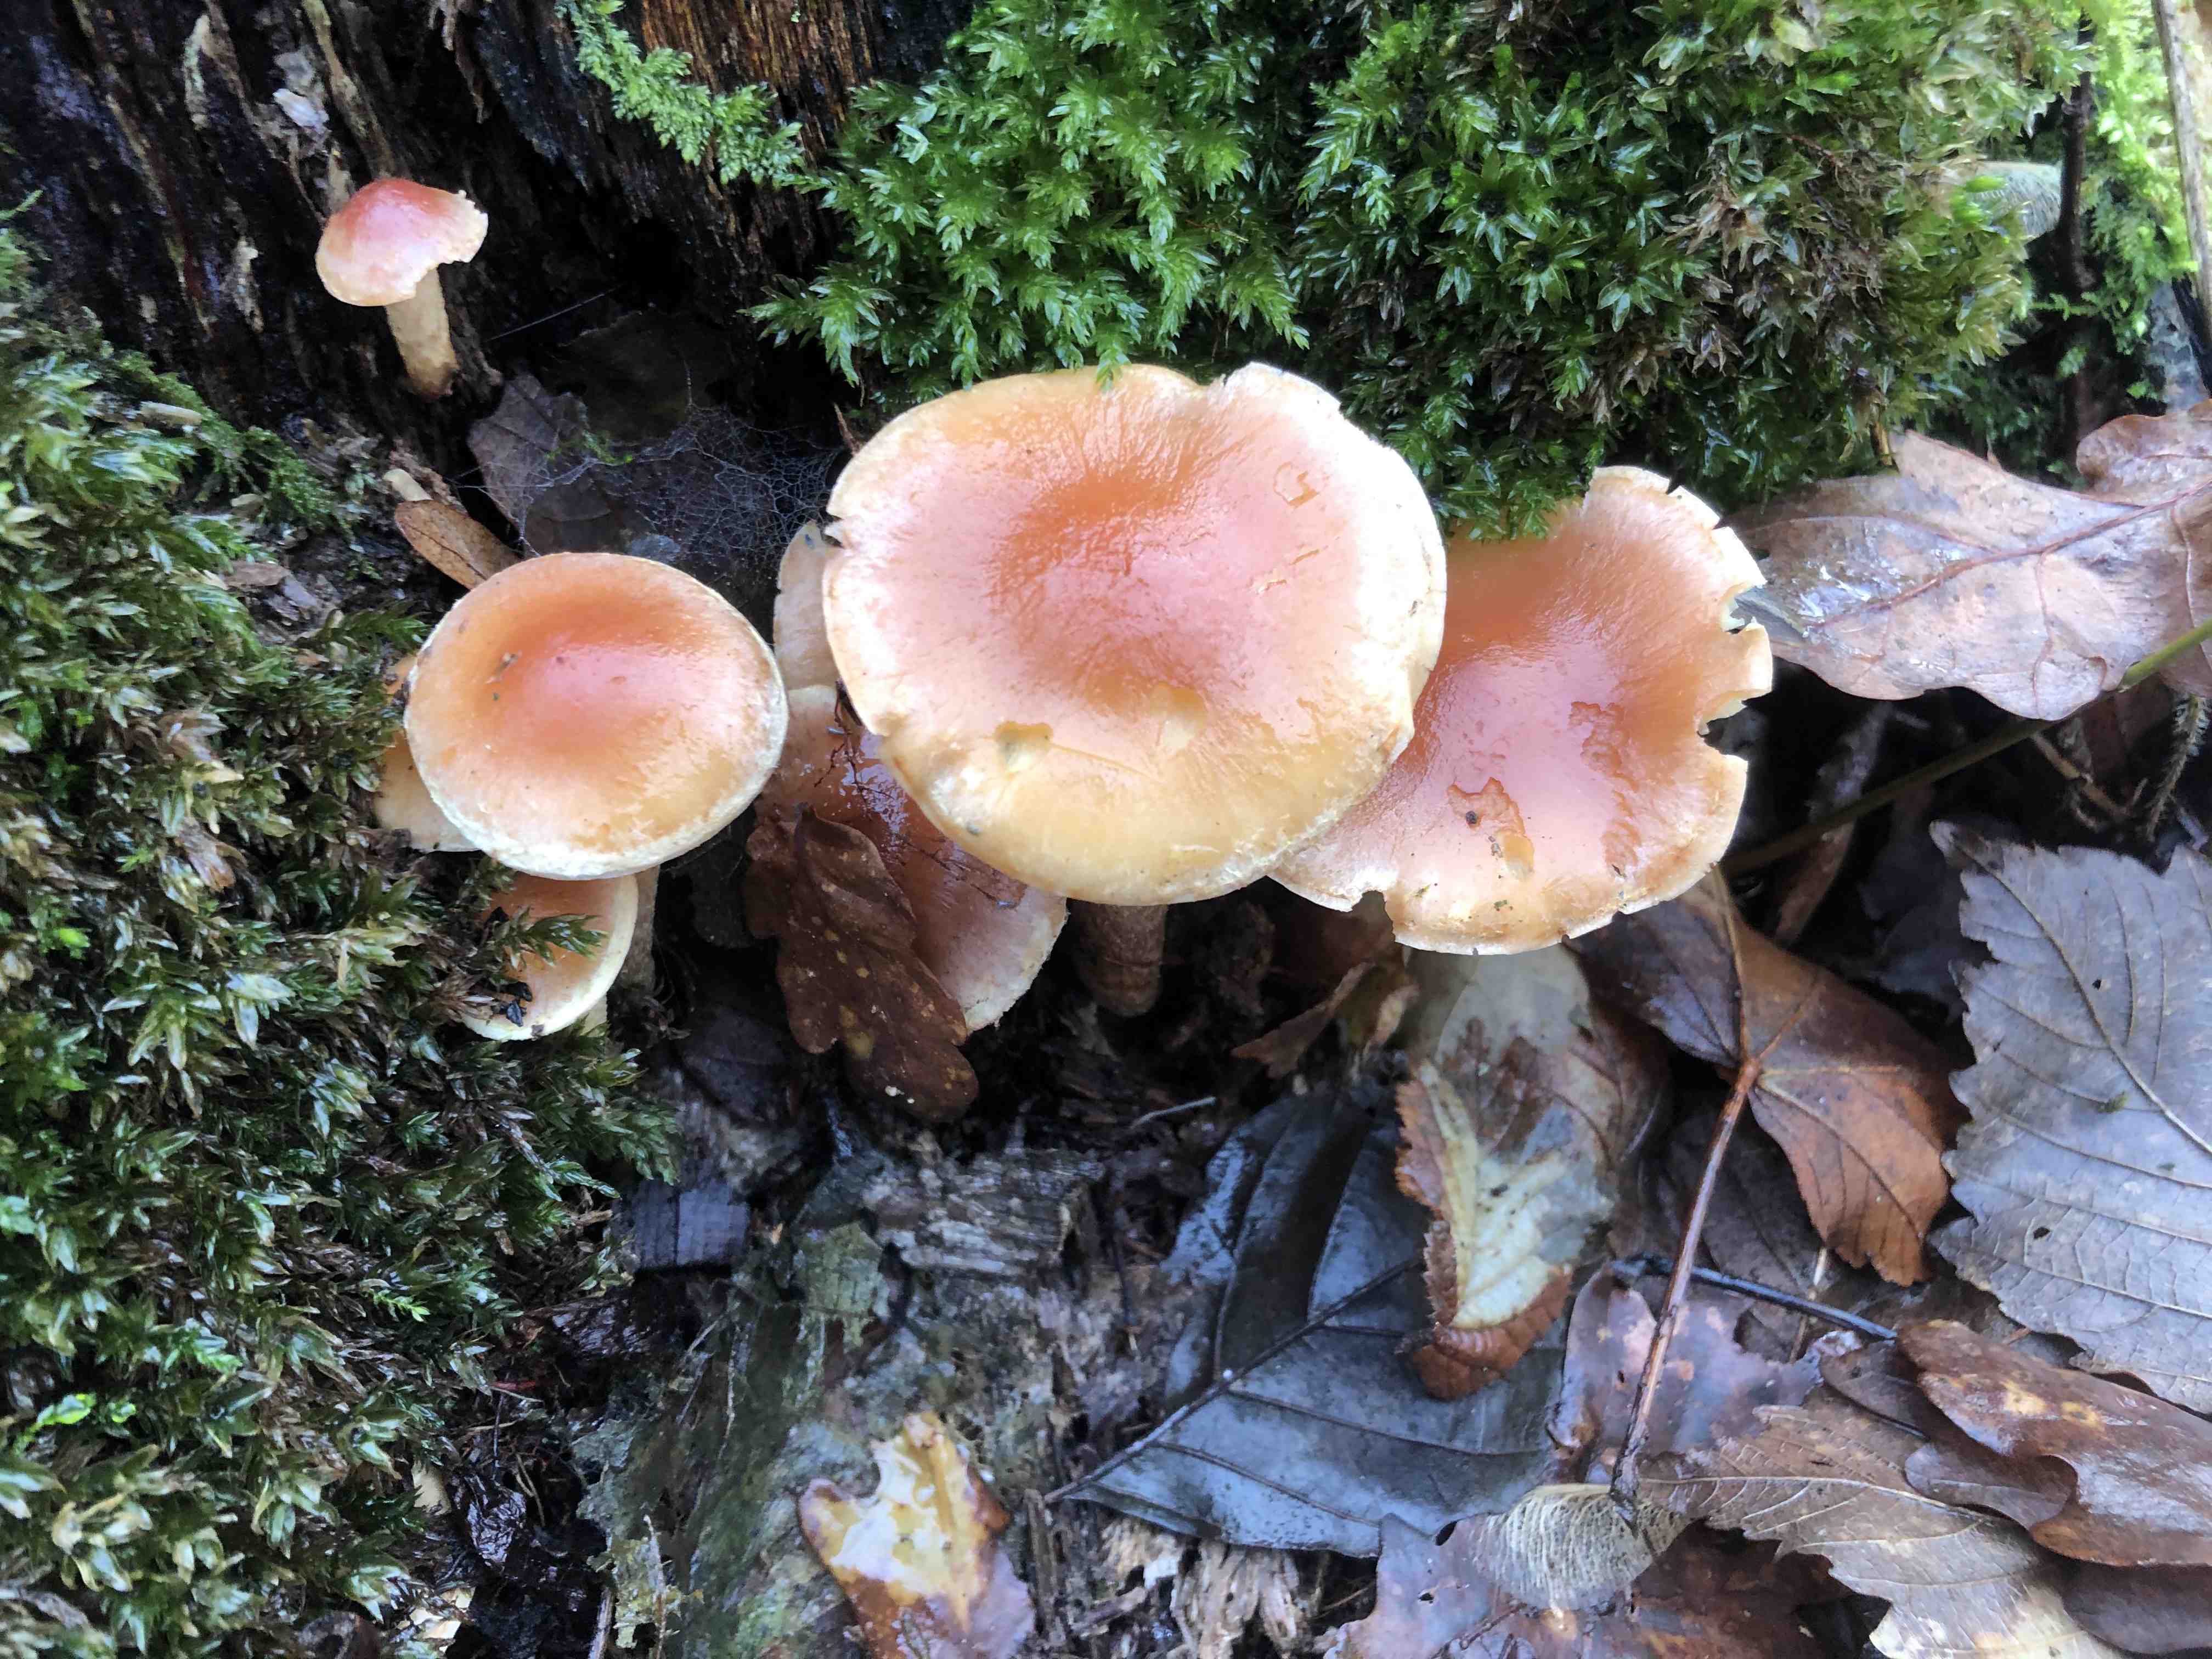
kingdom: Fungi
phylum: Basidiomycota
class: Agaricomycetes
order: Agaricales
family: Strophariaceae
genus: Hypholoma
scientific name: Hypholoma lateritium
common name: teglrød svovlhat
